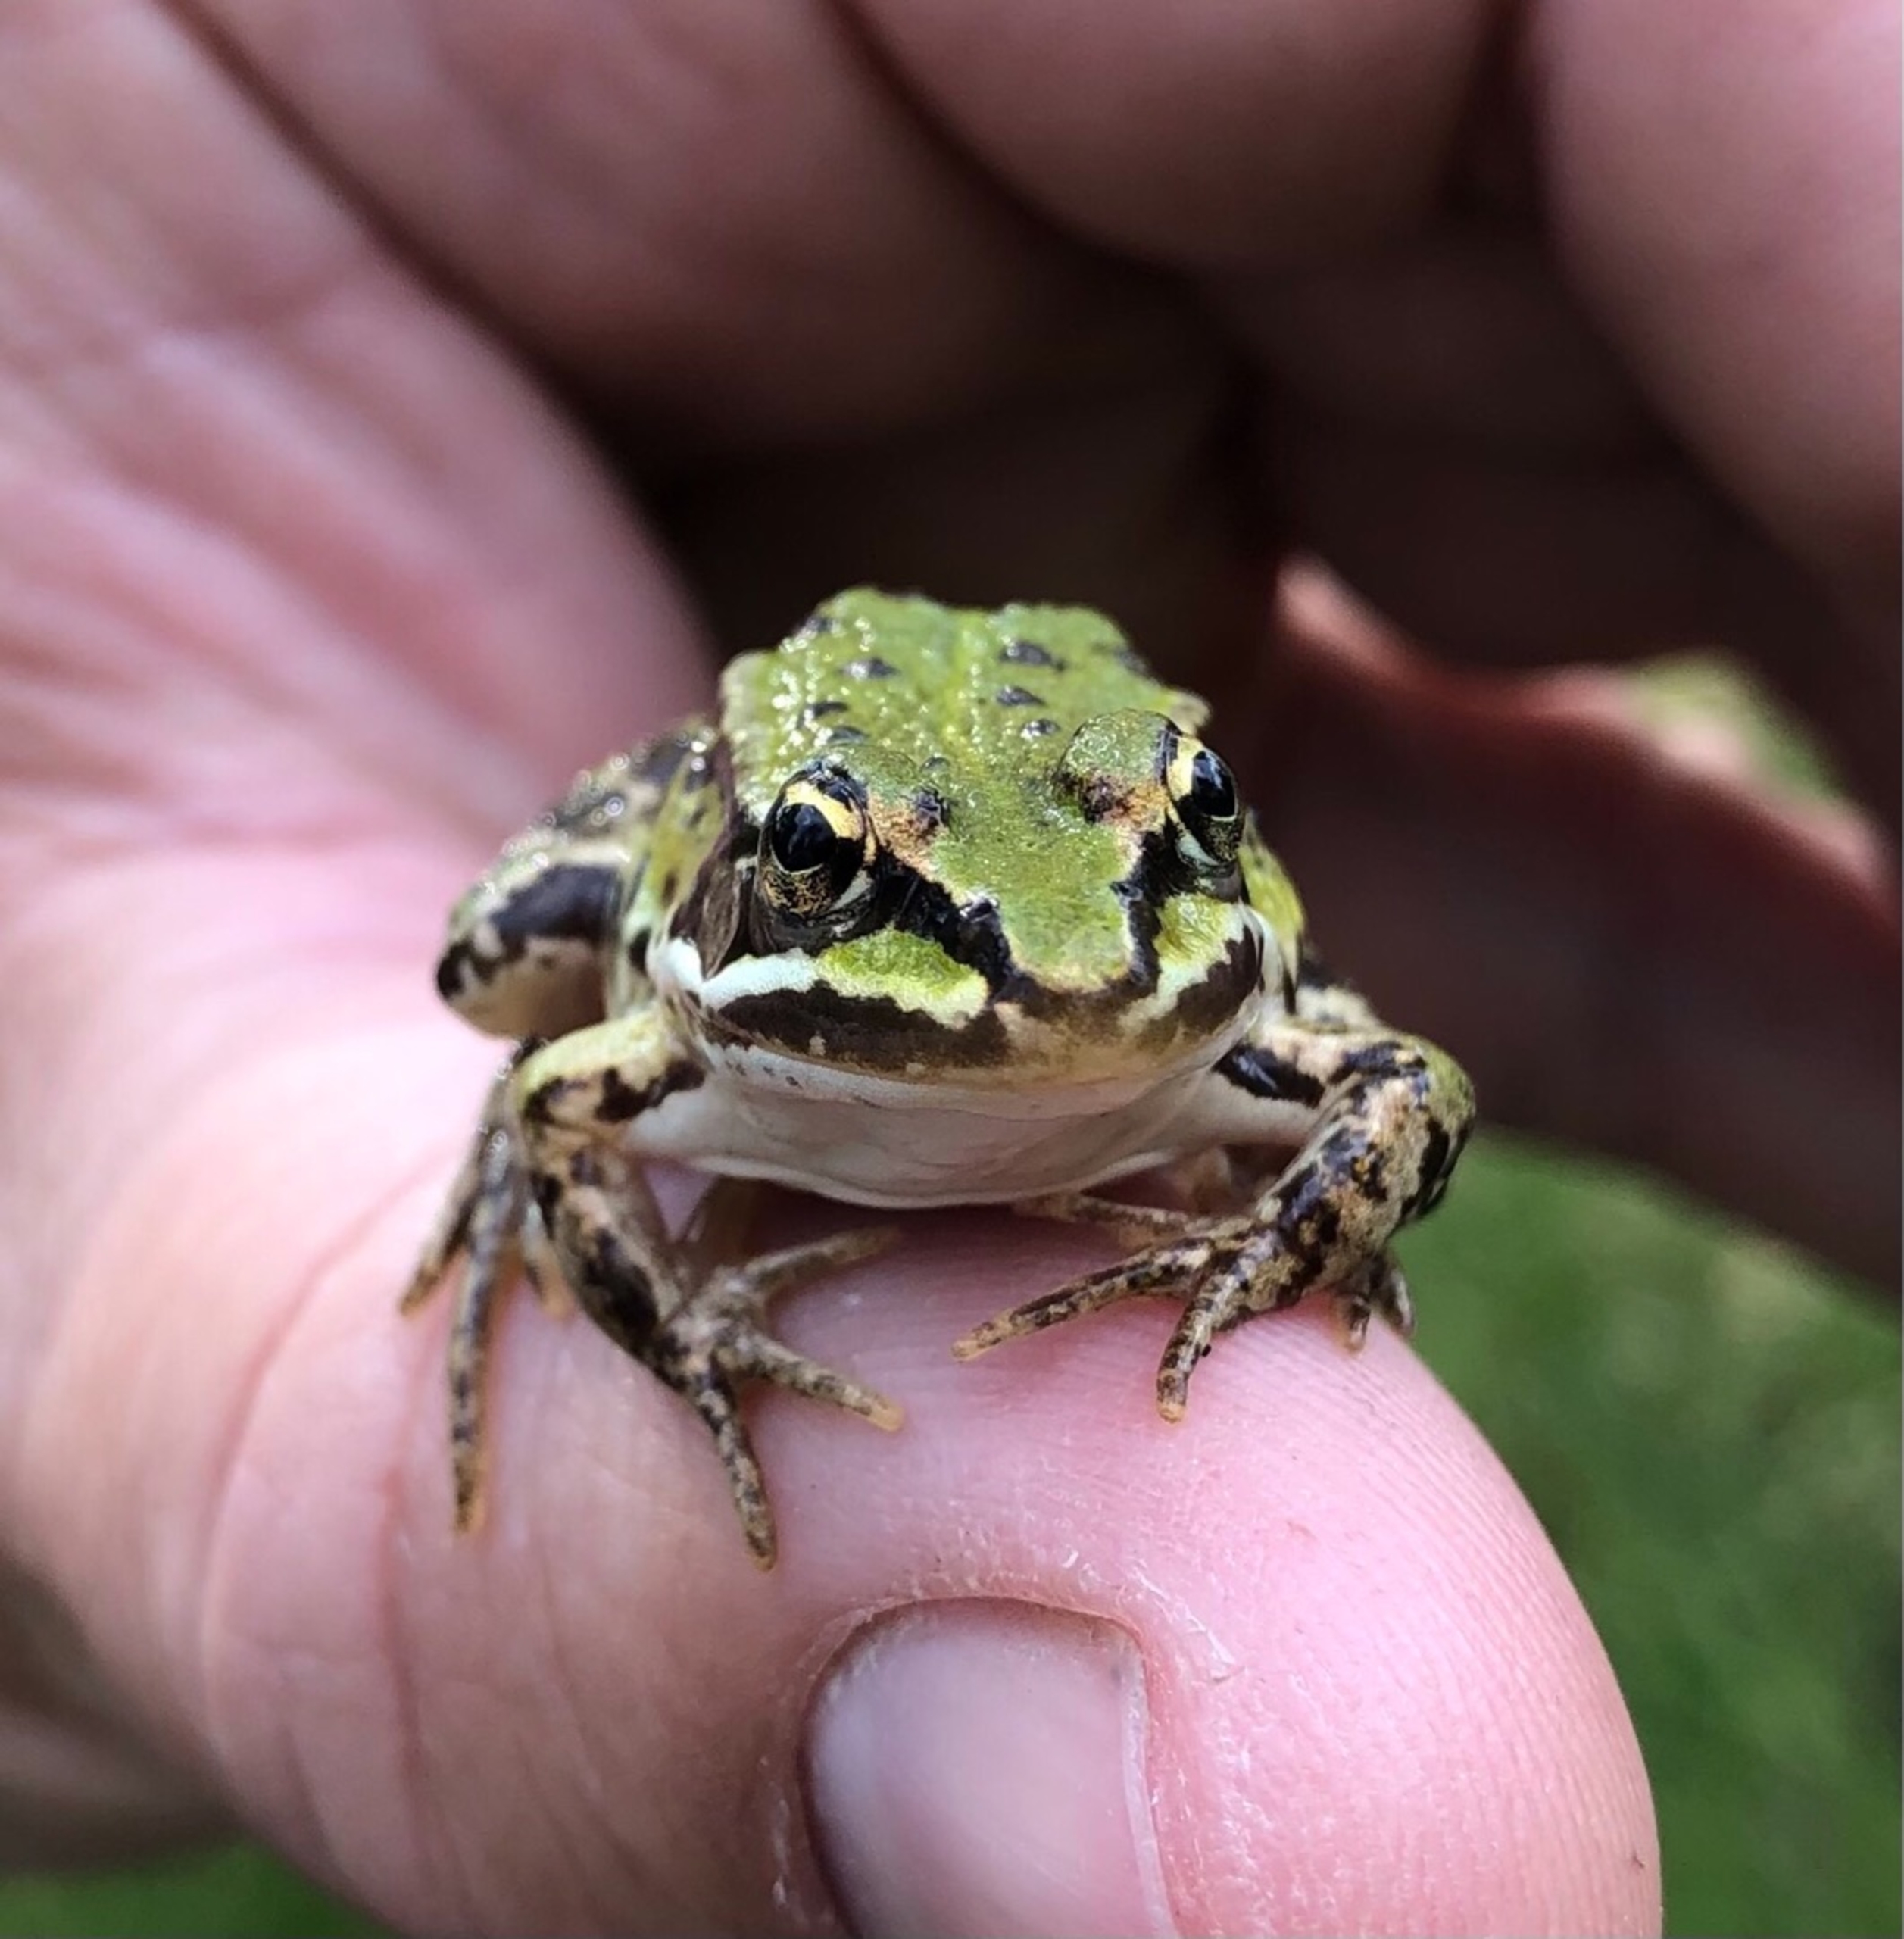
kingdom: Animalia
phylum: Chordata
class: Amphibia
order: Anura
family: Ranidae
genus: Pelophylax
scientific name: Pelophylax lessonae
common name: Grøn frø
